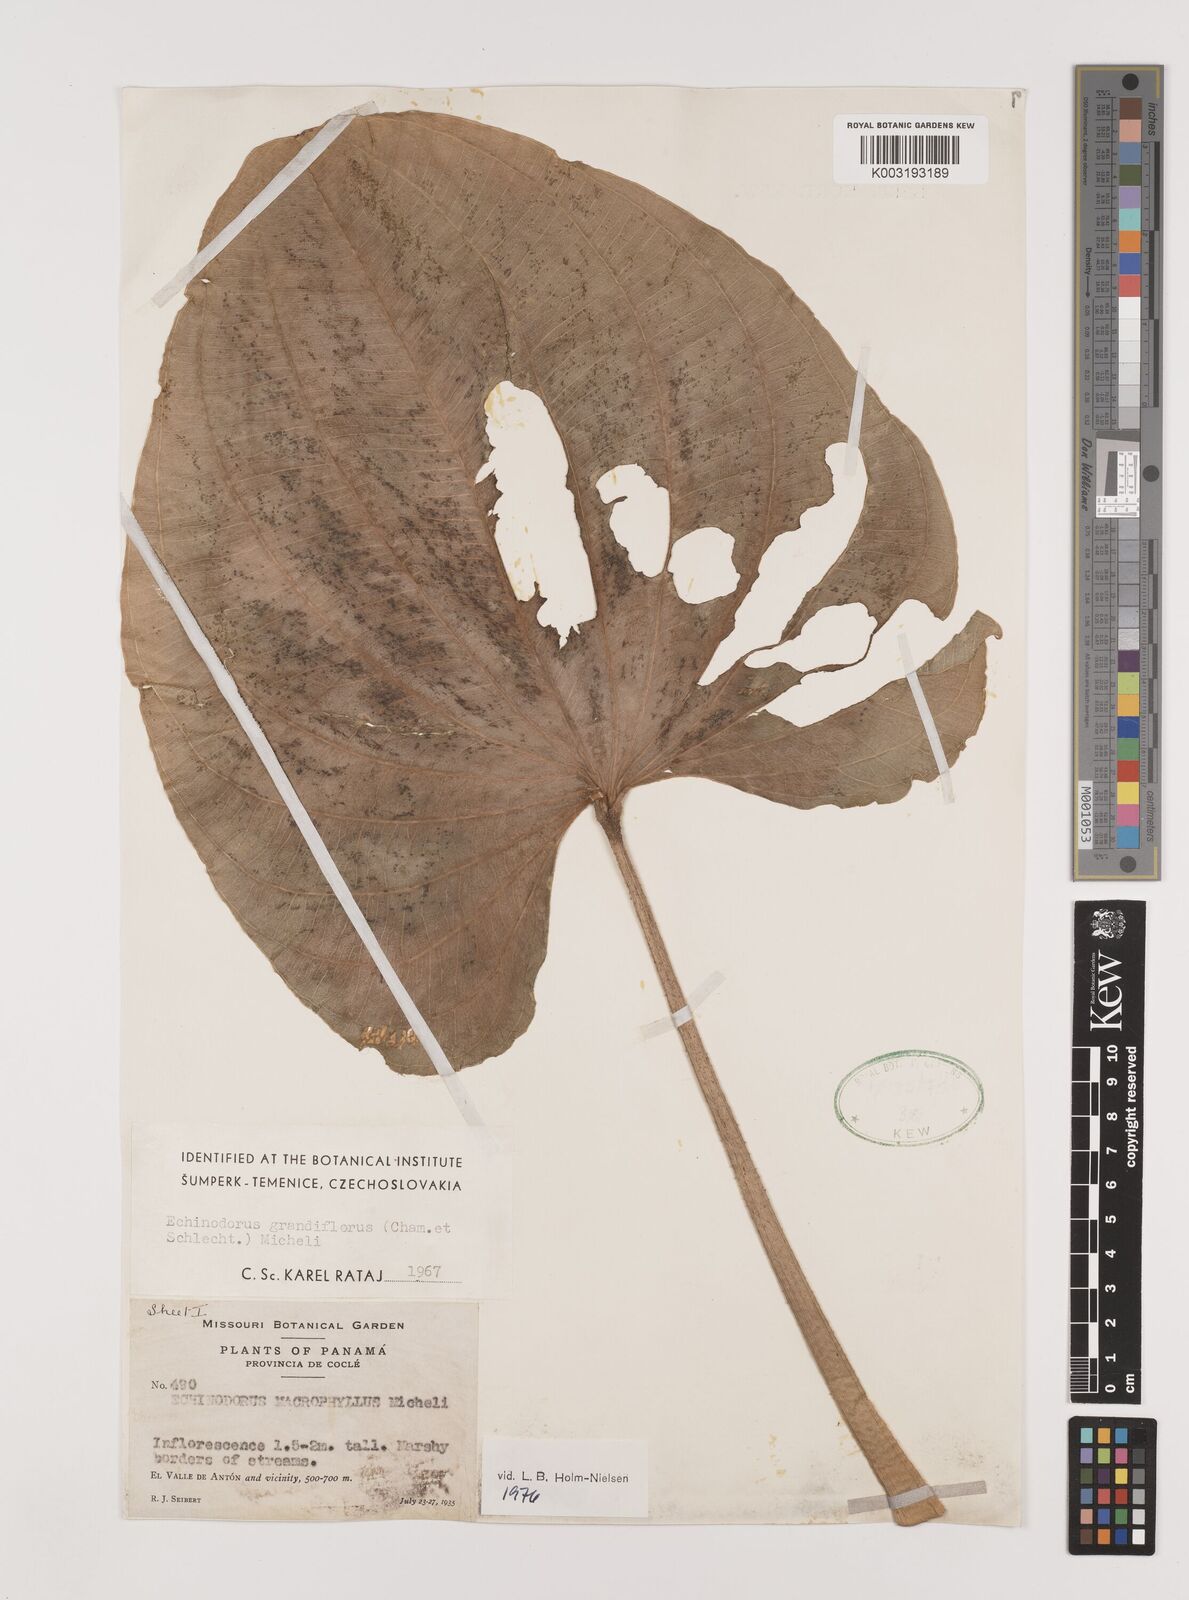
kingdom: Plantae
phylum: Tracheophyta
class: Liliopsida
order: Alismatales
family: Alismataceae
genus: Aquarius
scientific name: Aquarius grandiflorus
